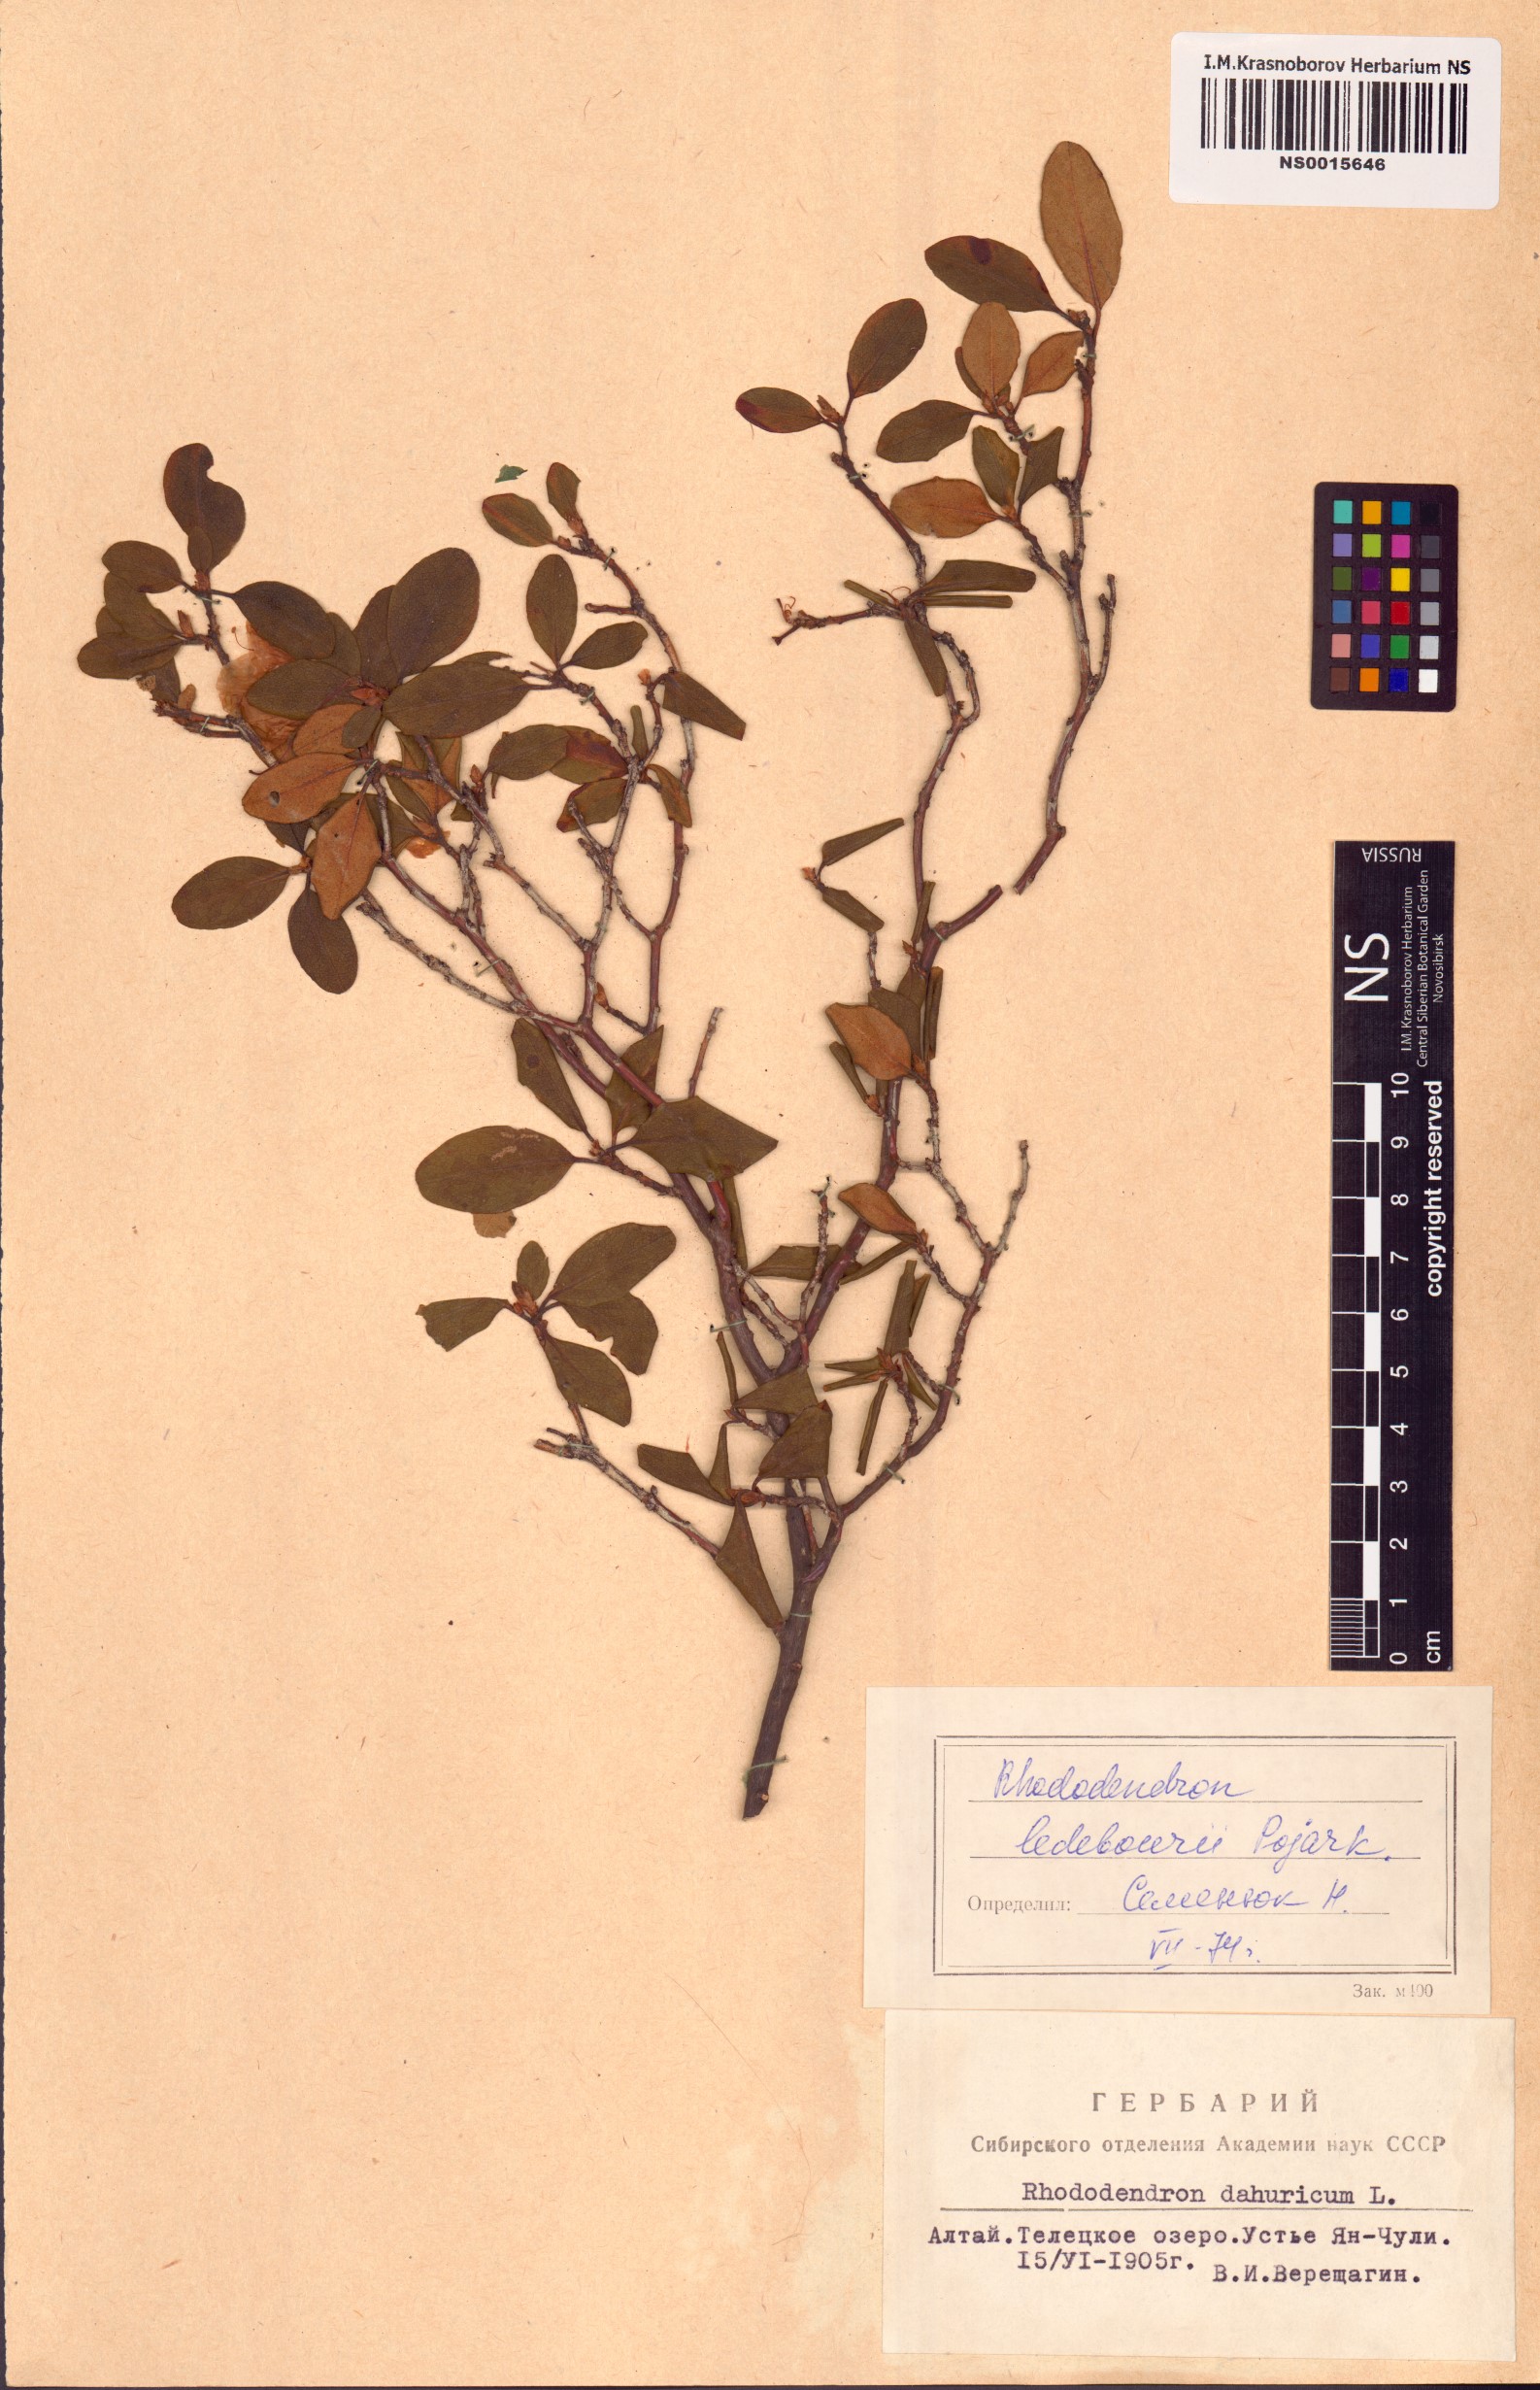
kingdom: Plantae
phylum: Tracheophyta
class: Magnoliopsida
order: Ericales
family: Ericaceae
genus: Rhododendron
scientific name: Rhododendron dauricum
